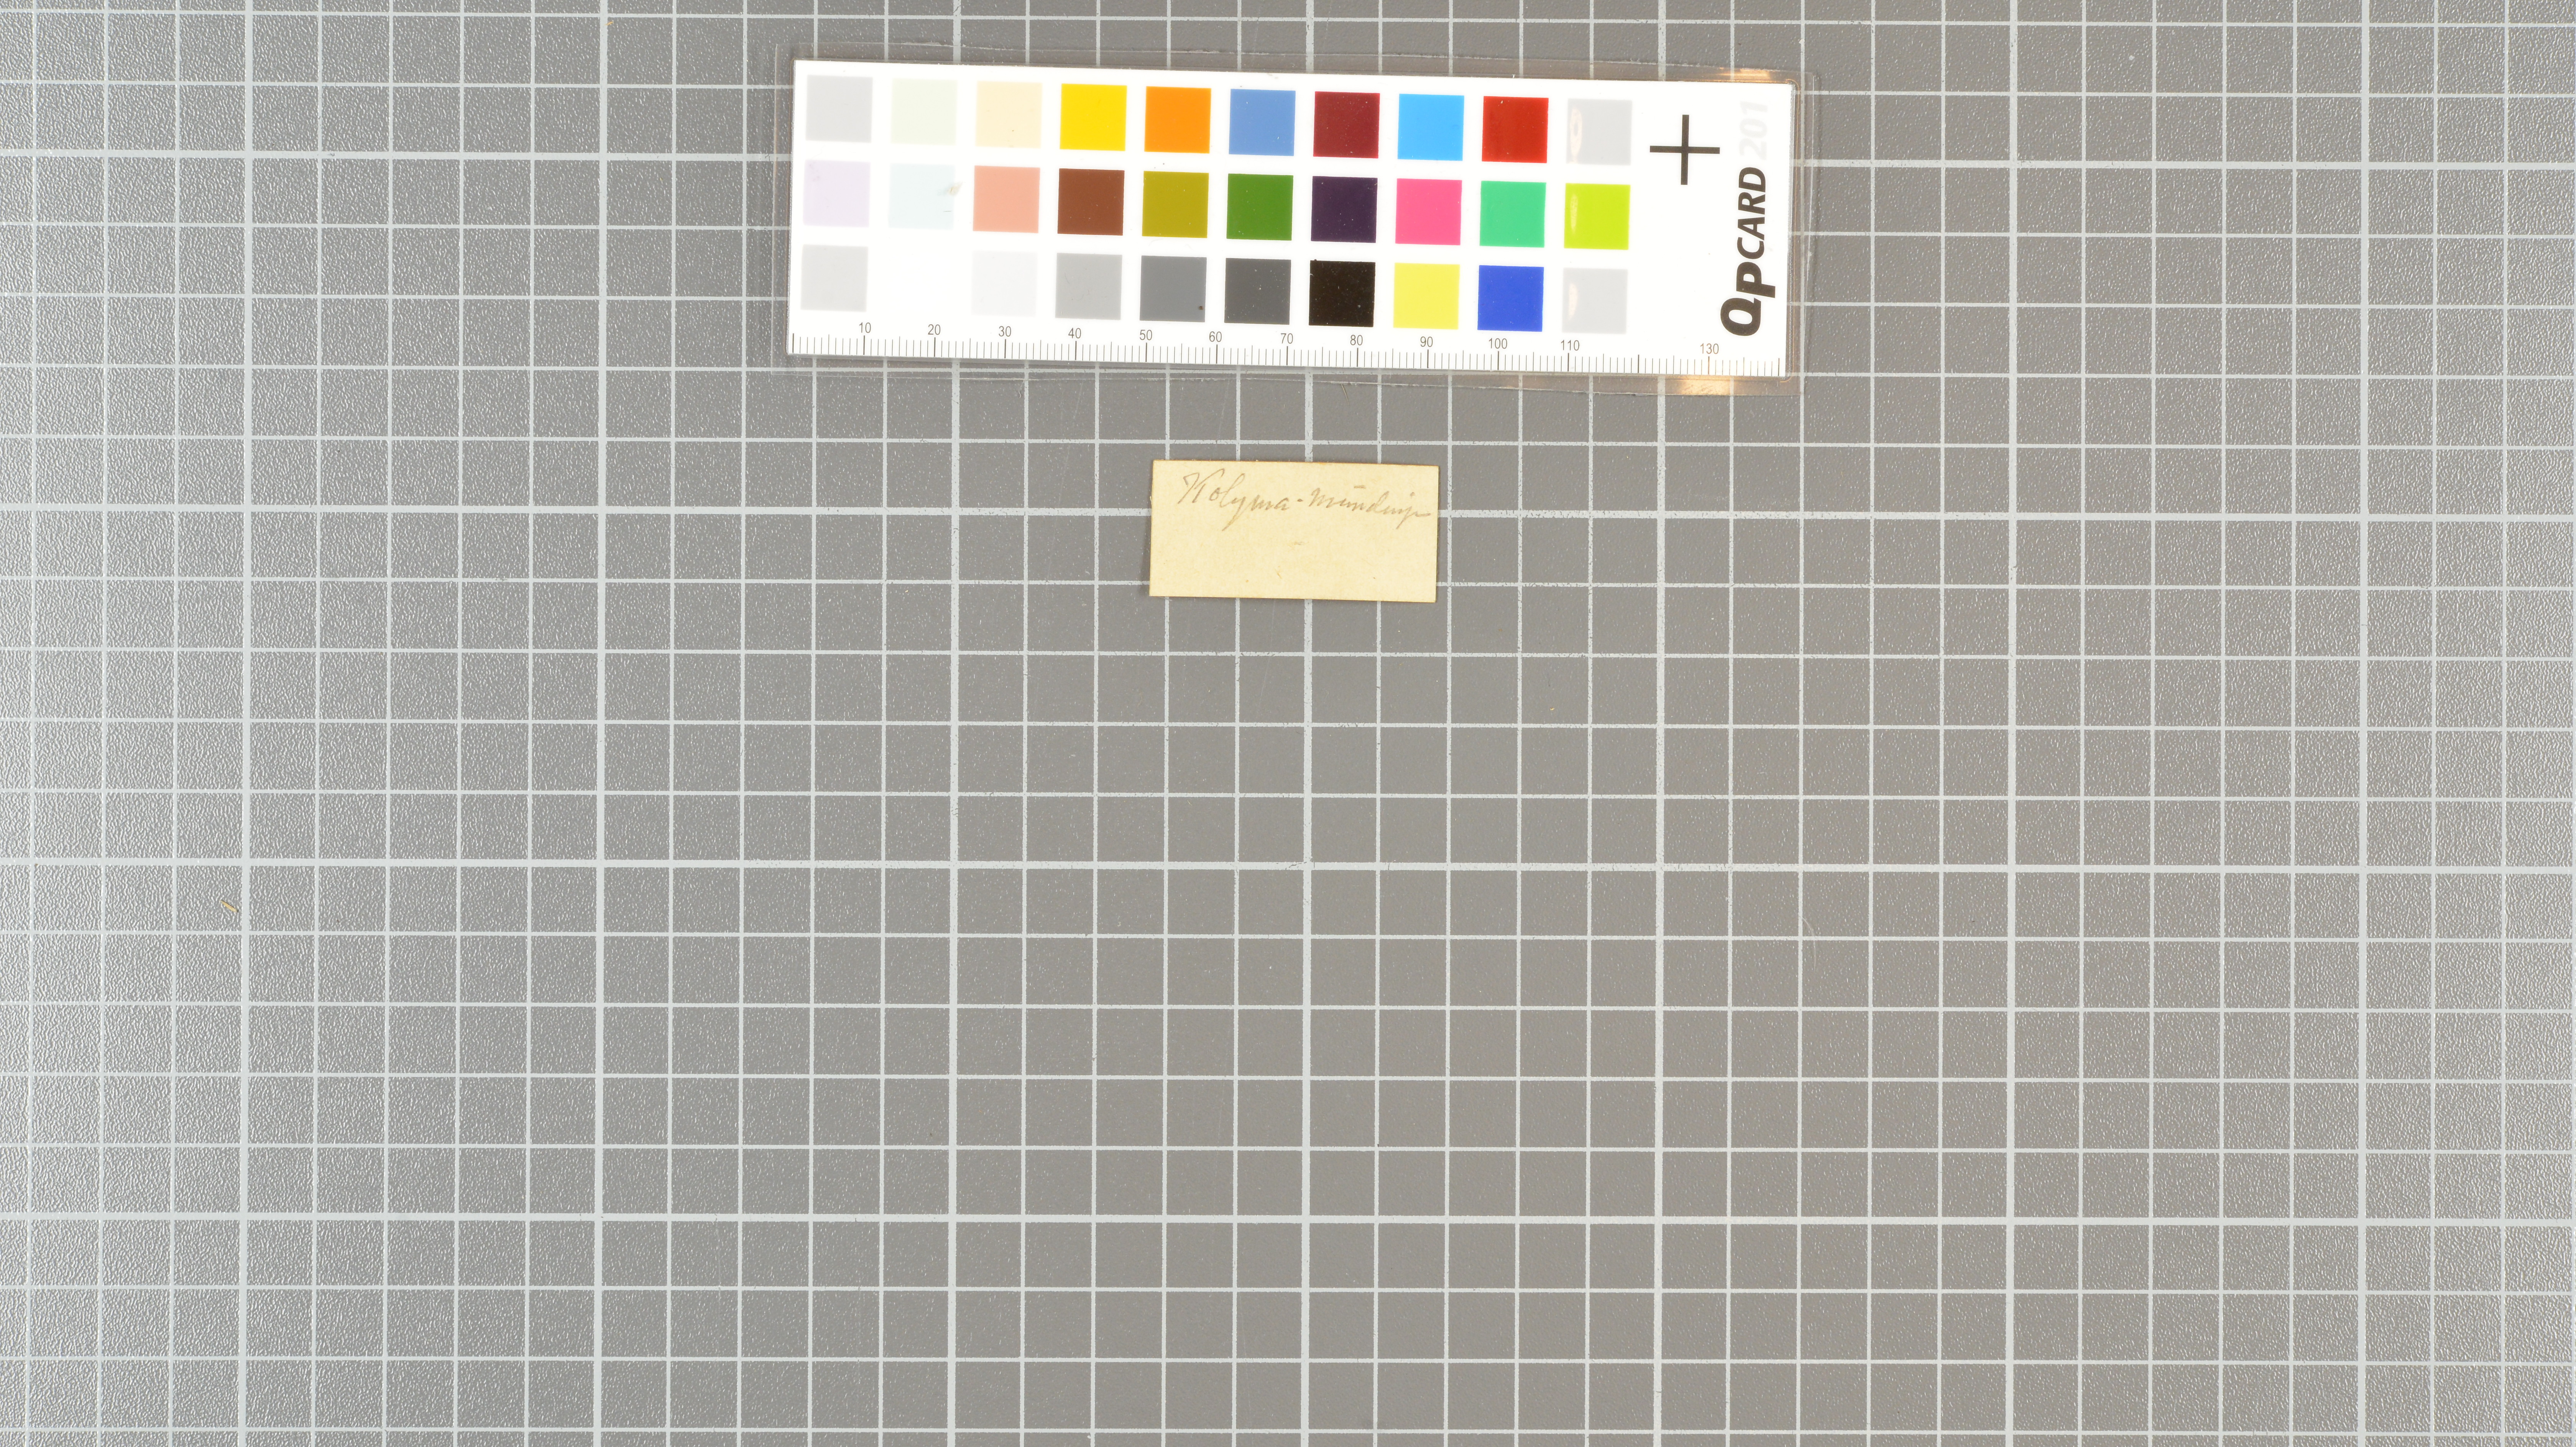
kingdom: Animalia
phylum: Chordata
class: Aves
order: Falconiformes
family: Falconidae
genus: Falco
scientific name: Falco peregrinus
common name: Peregrine falcon
